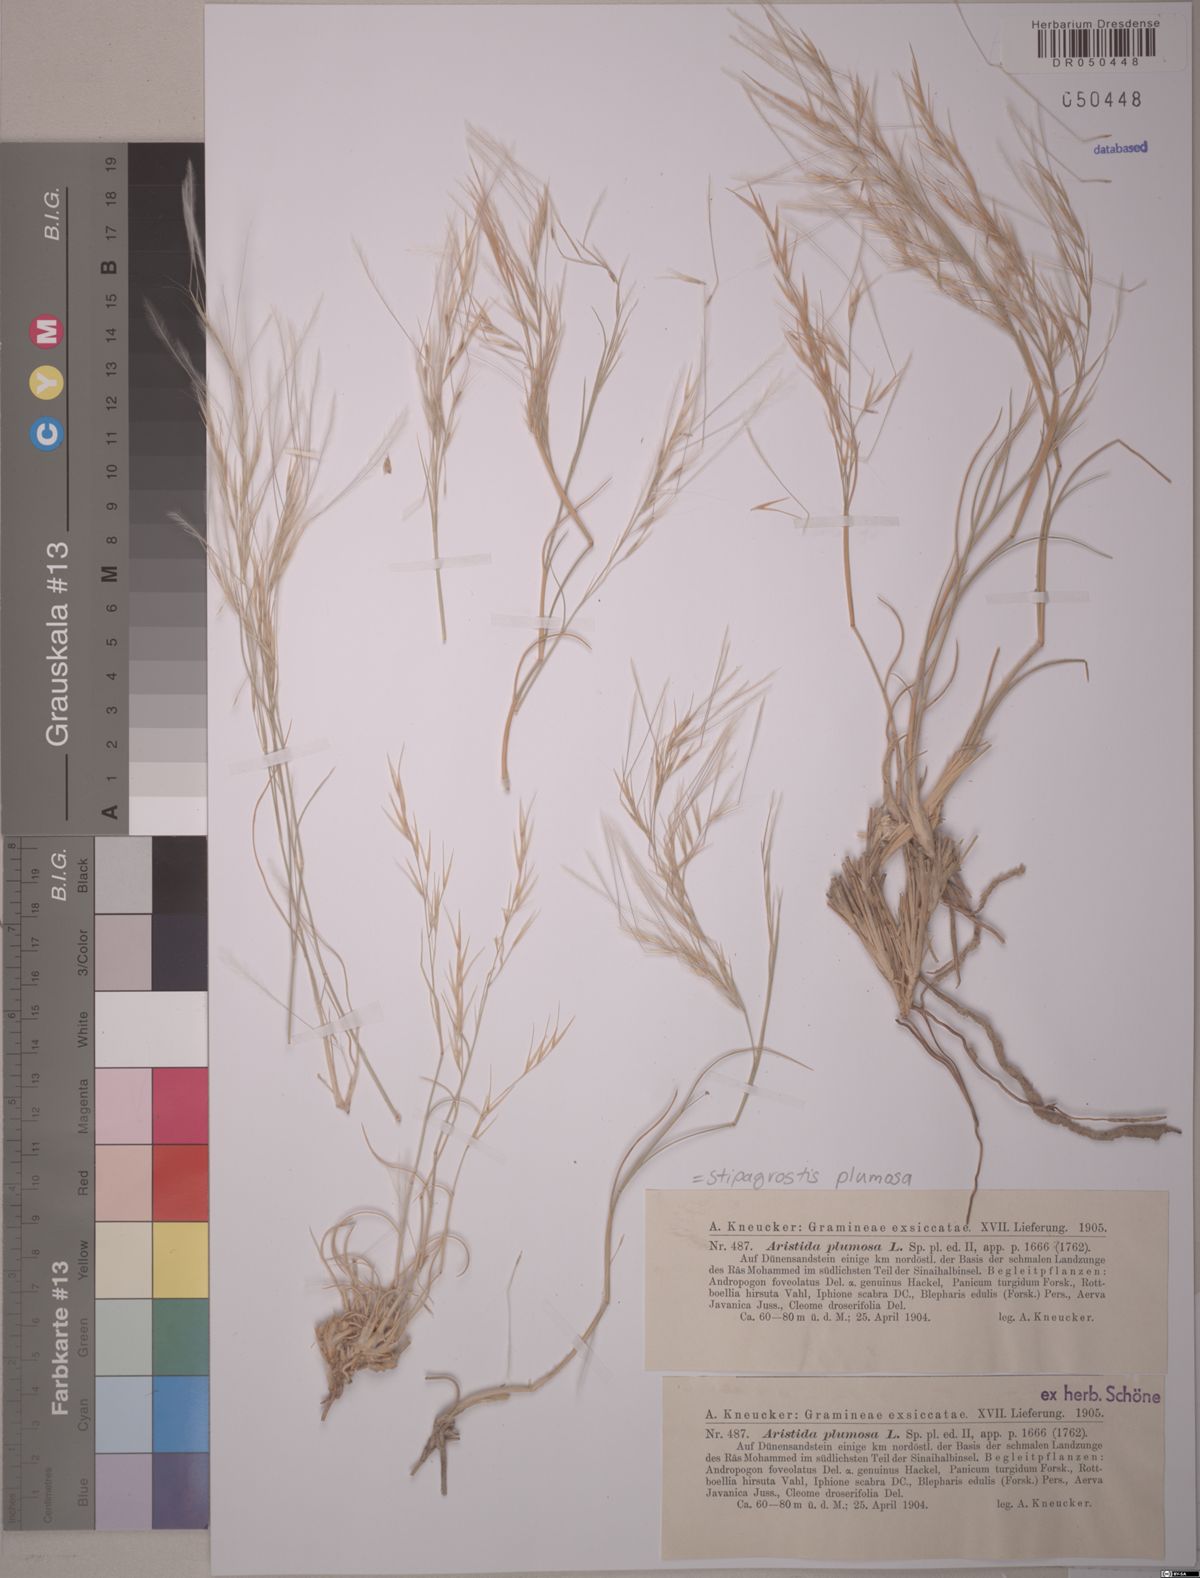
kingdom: Plantae
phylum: Tracheophyta
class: Liliopsida
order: Poales
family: Poaceae
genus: Stipagrostis
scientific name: Stipagrostis plumosa
